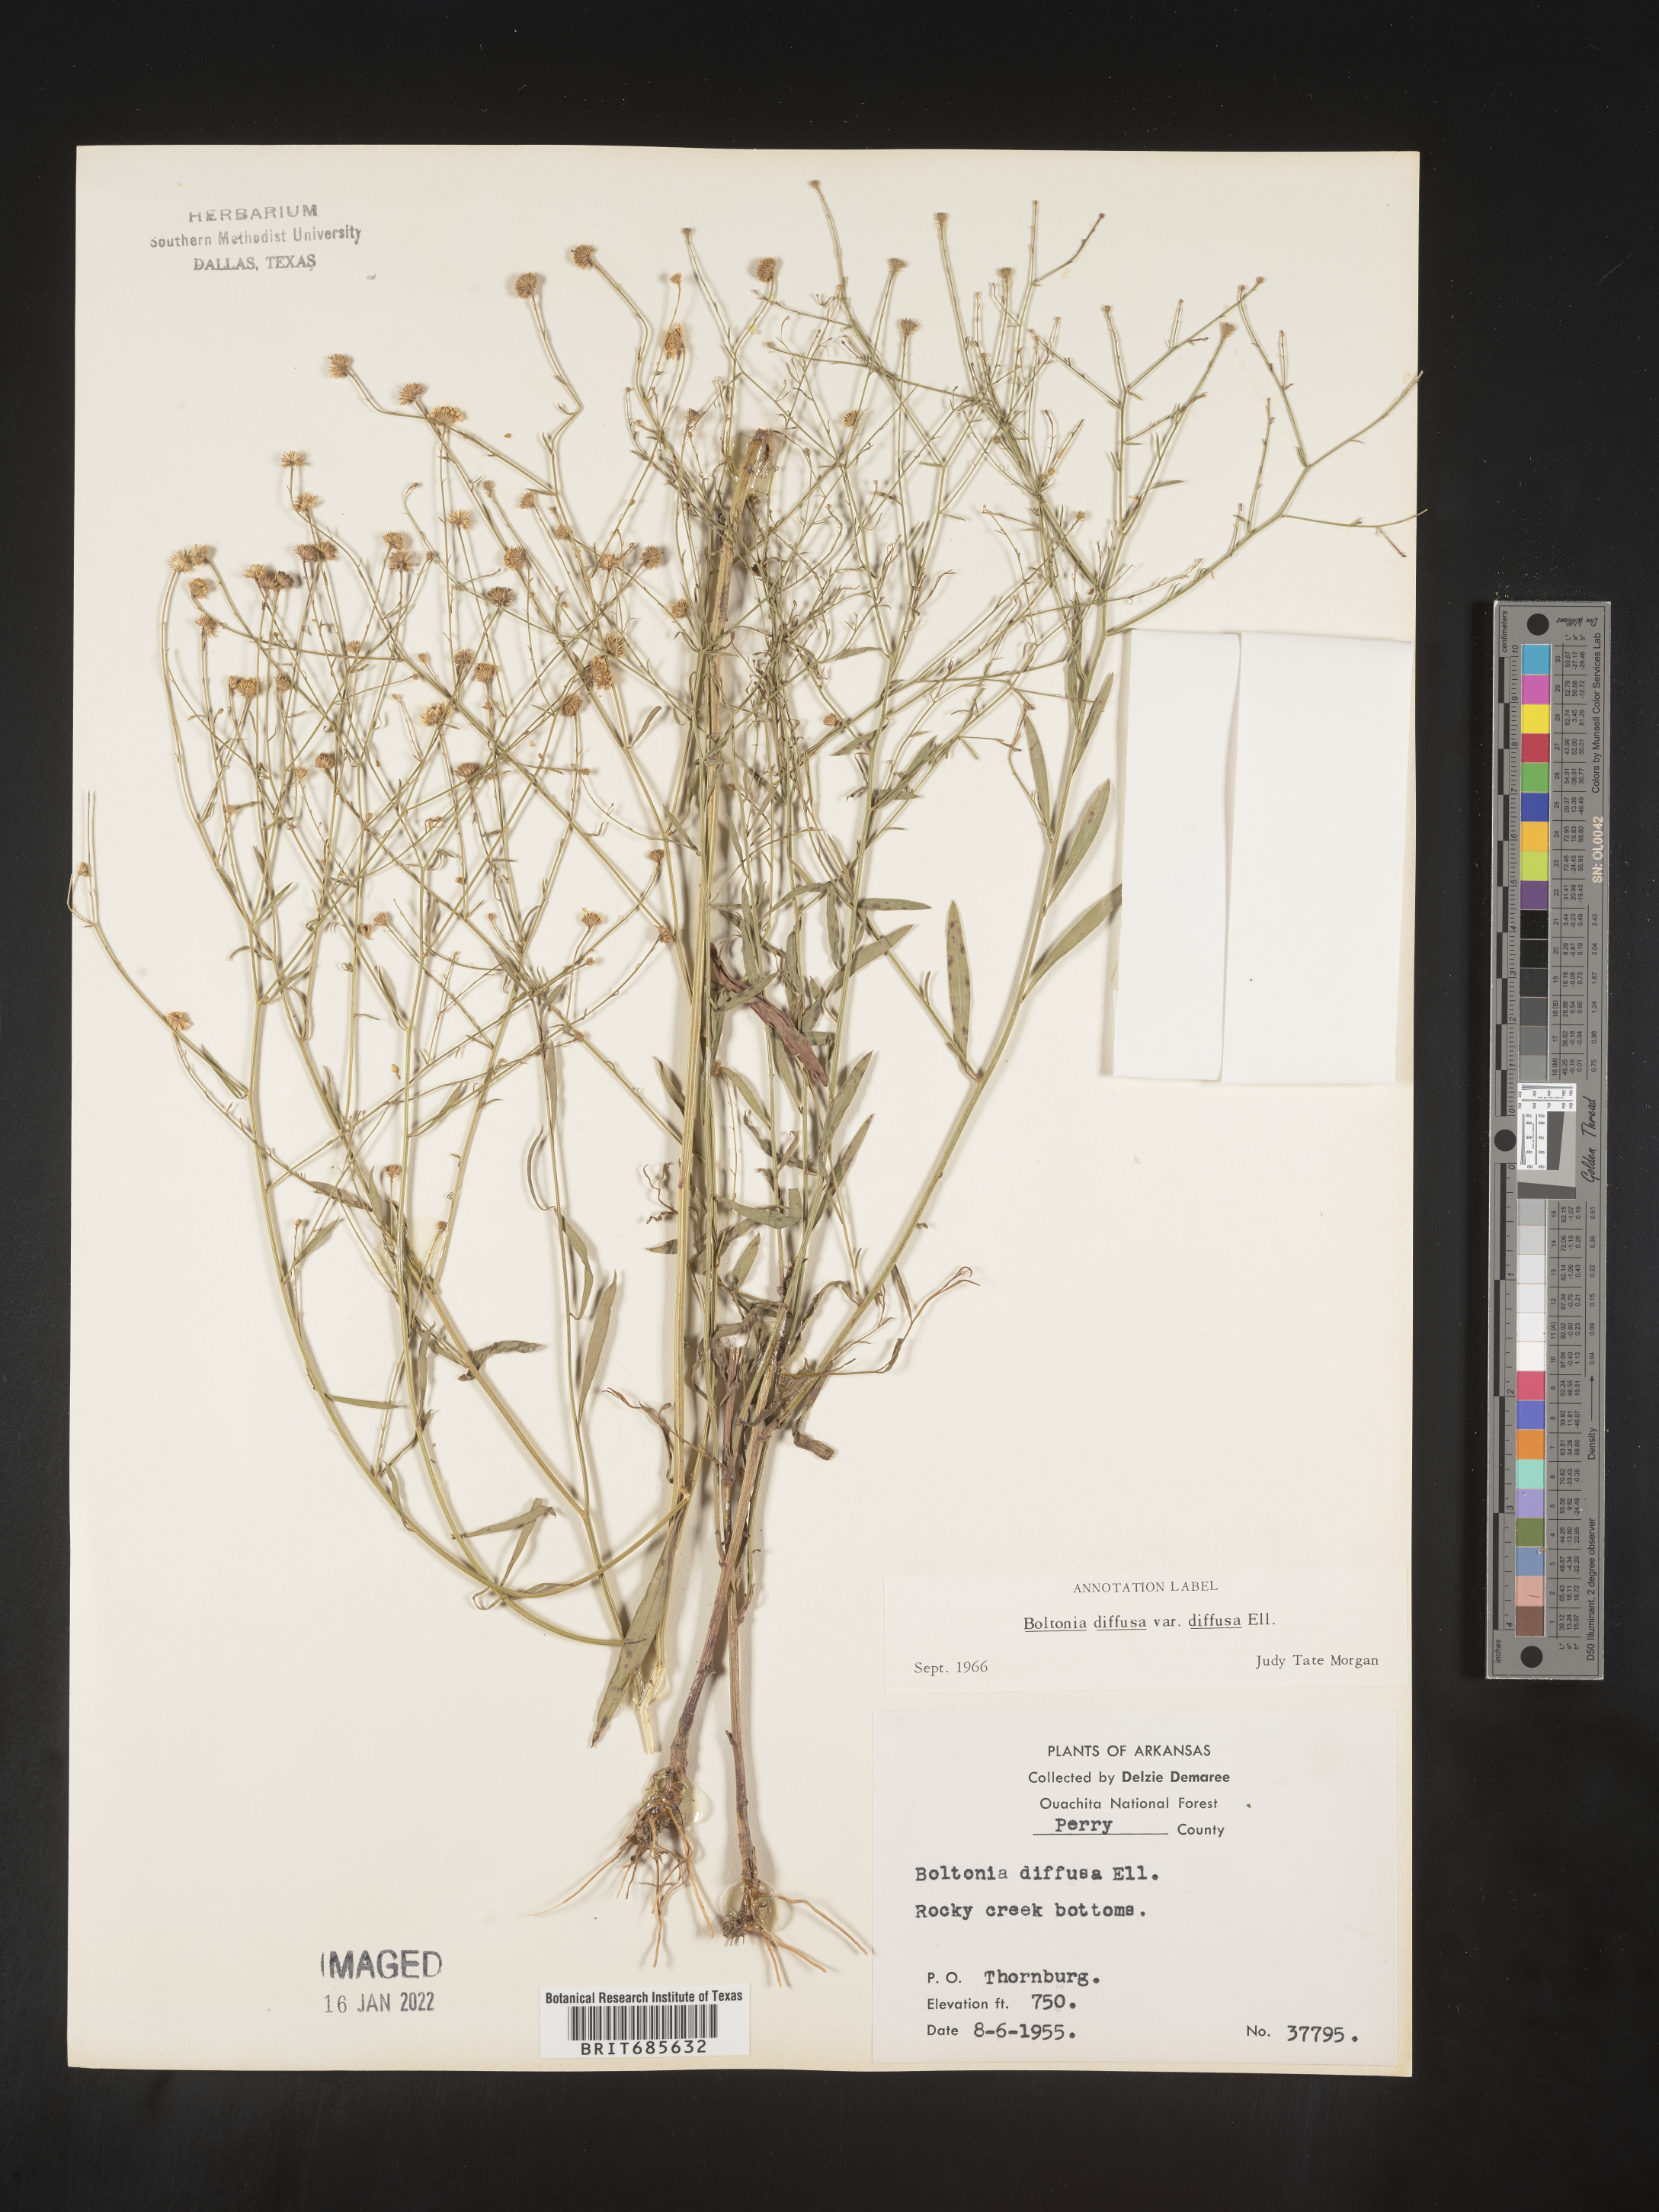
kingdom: Plantae
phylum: Tracheophyta
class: Magnoliopsida
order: Asterales
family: Asteraceae
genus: Boltonia
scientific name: Boltonia diffusa
